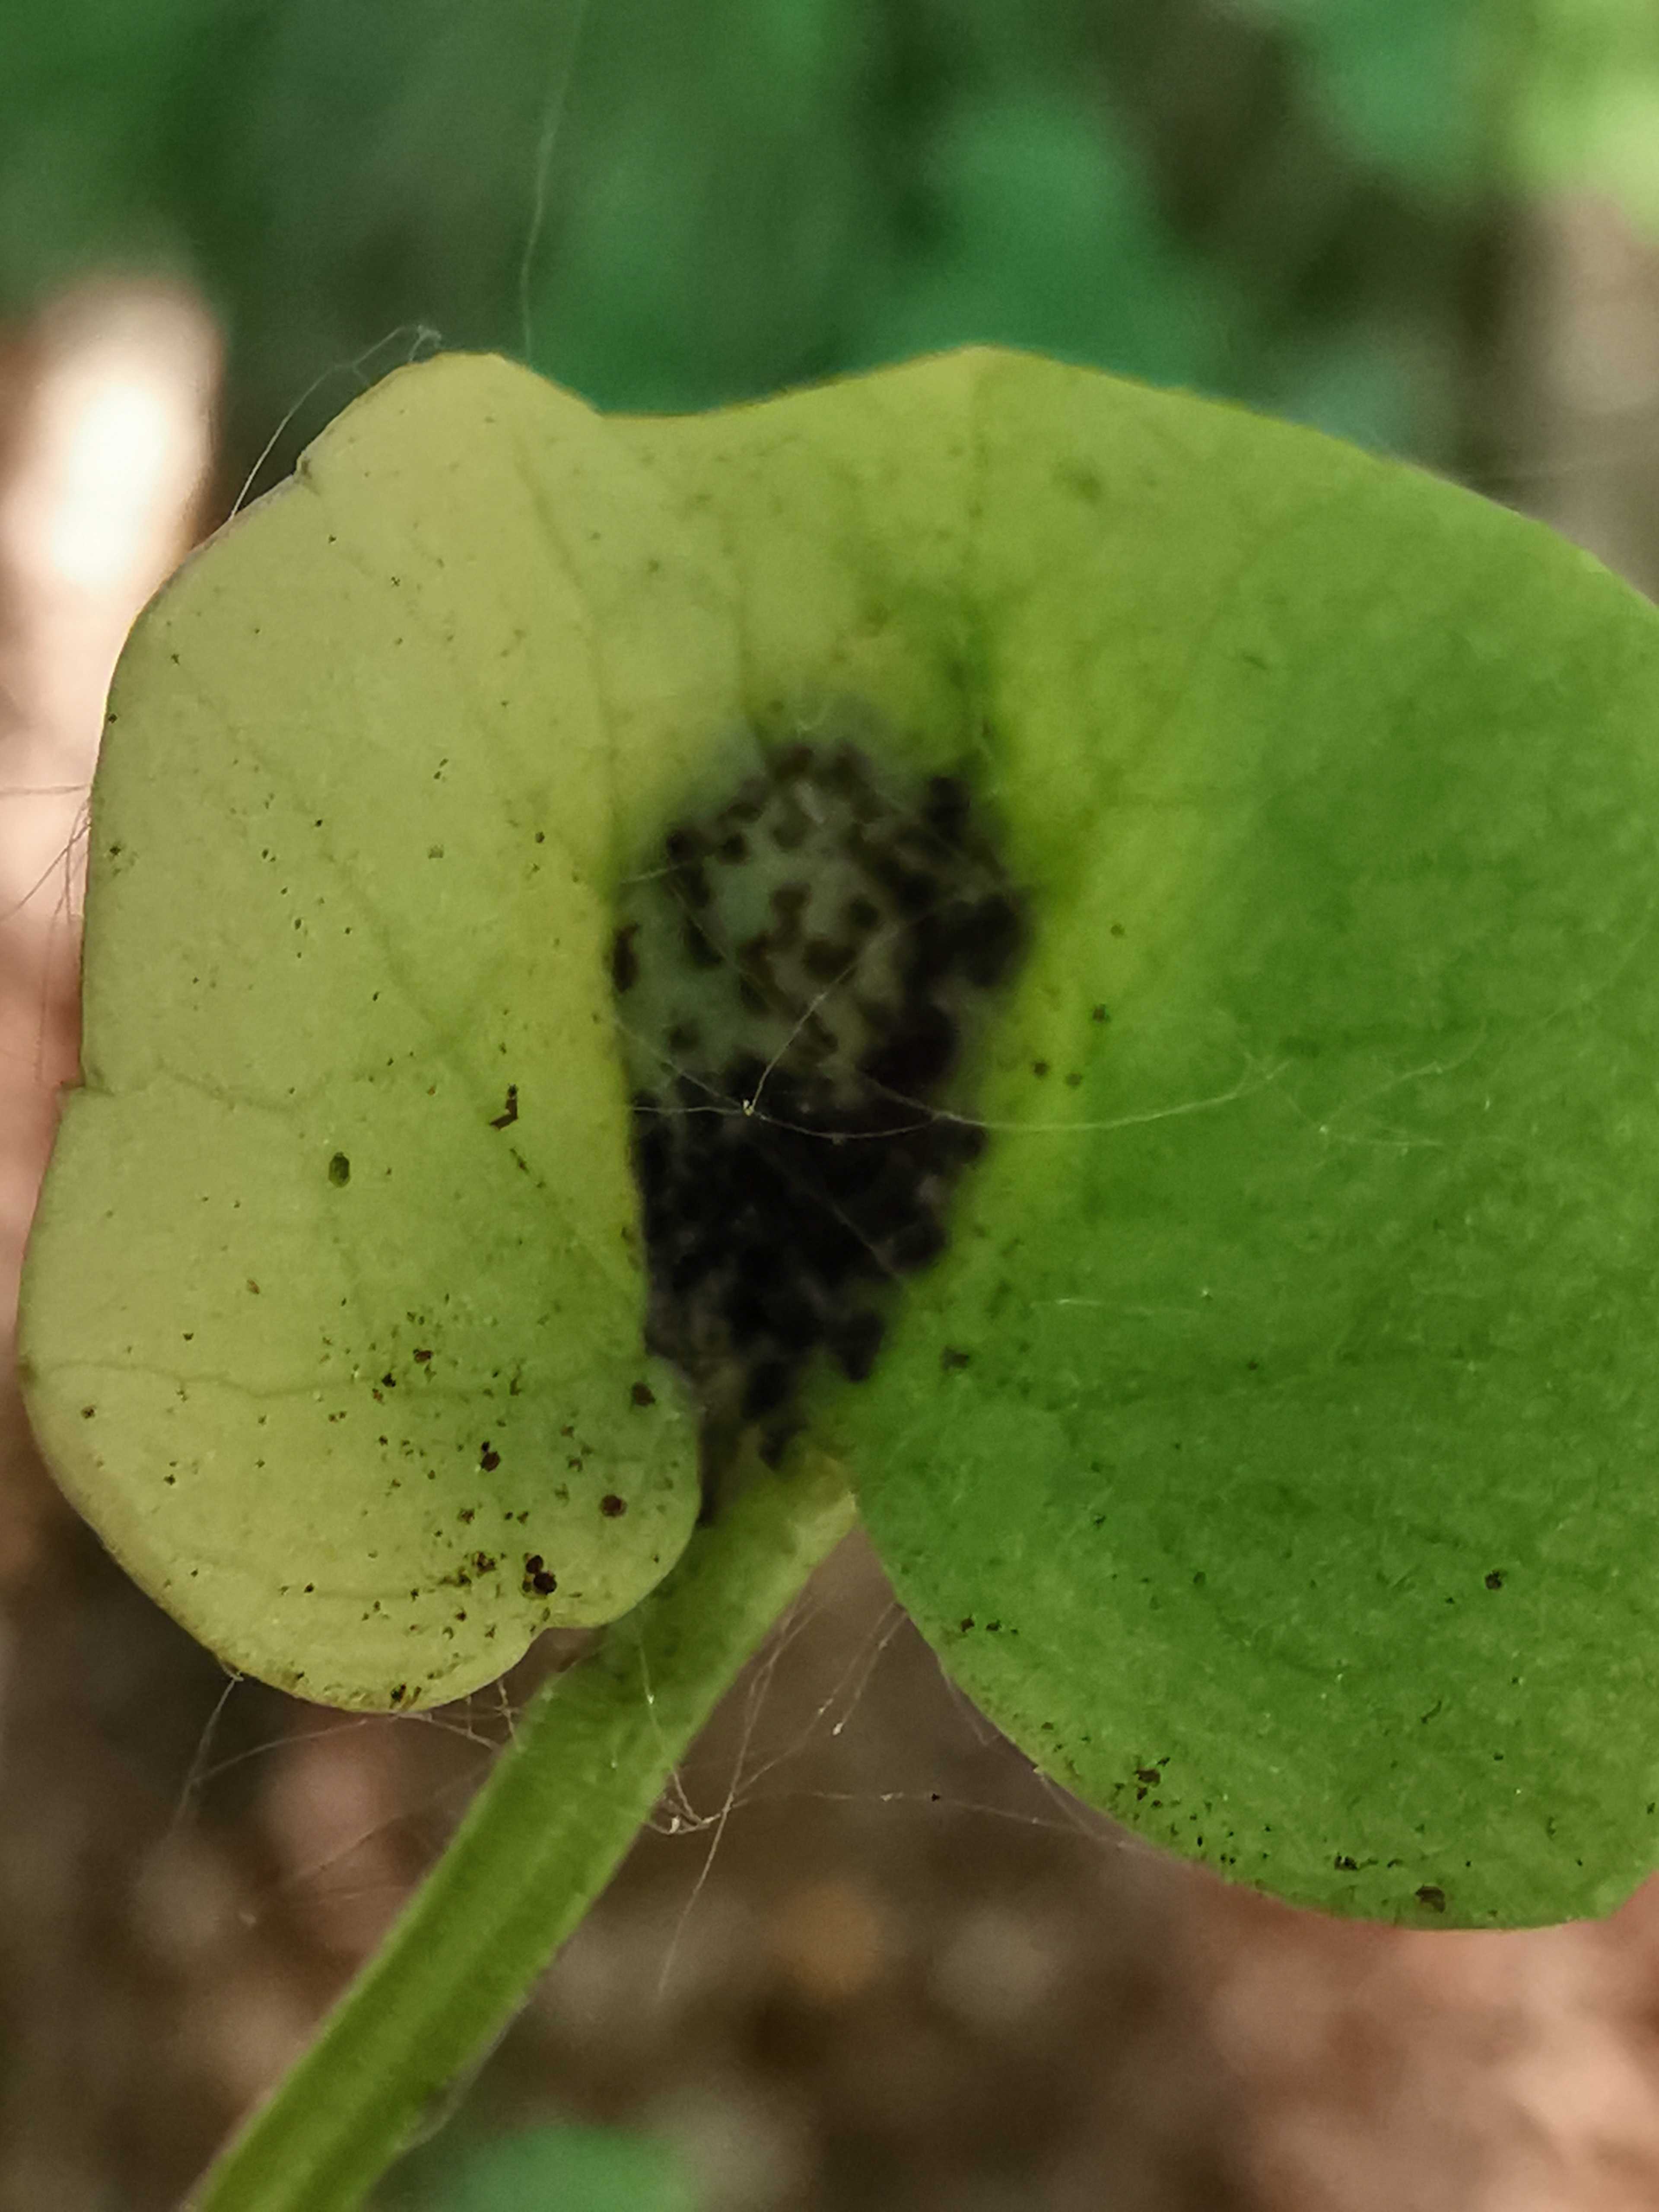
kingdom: Fungi
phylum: Basidiomycota
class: Pucciniomycetes
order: Pucciniales
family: Pucciniaceae
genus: Uromyces
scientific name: Uromyces ficariae
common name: vorterod-encellerust
